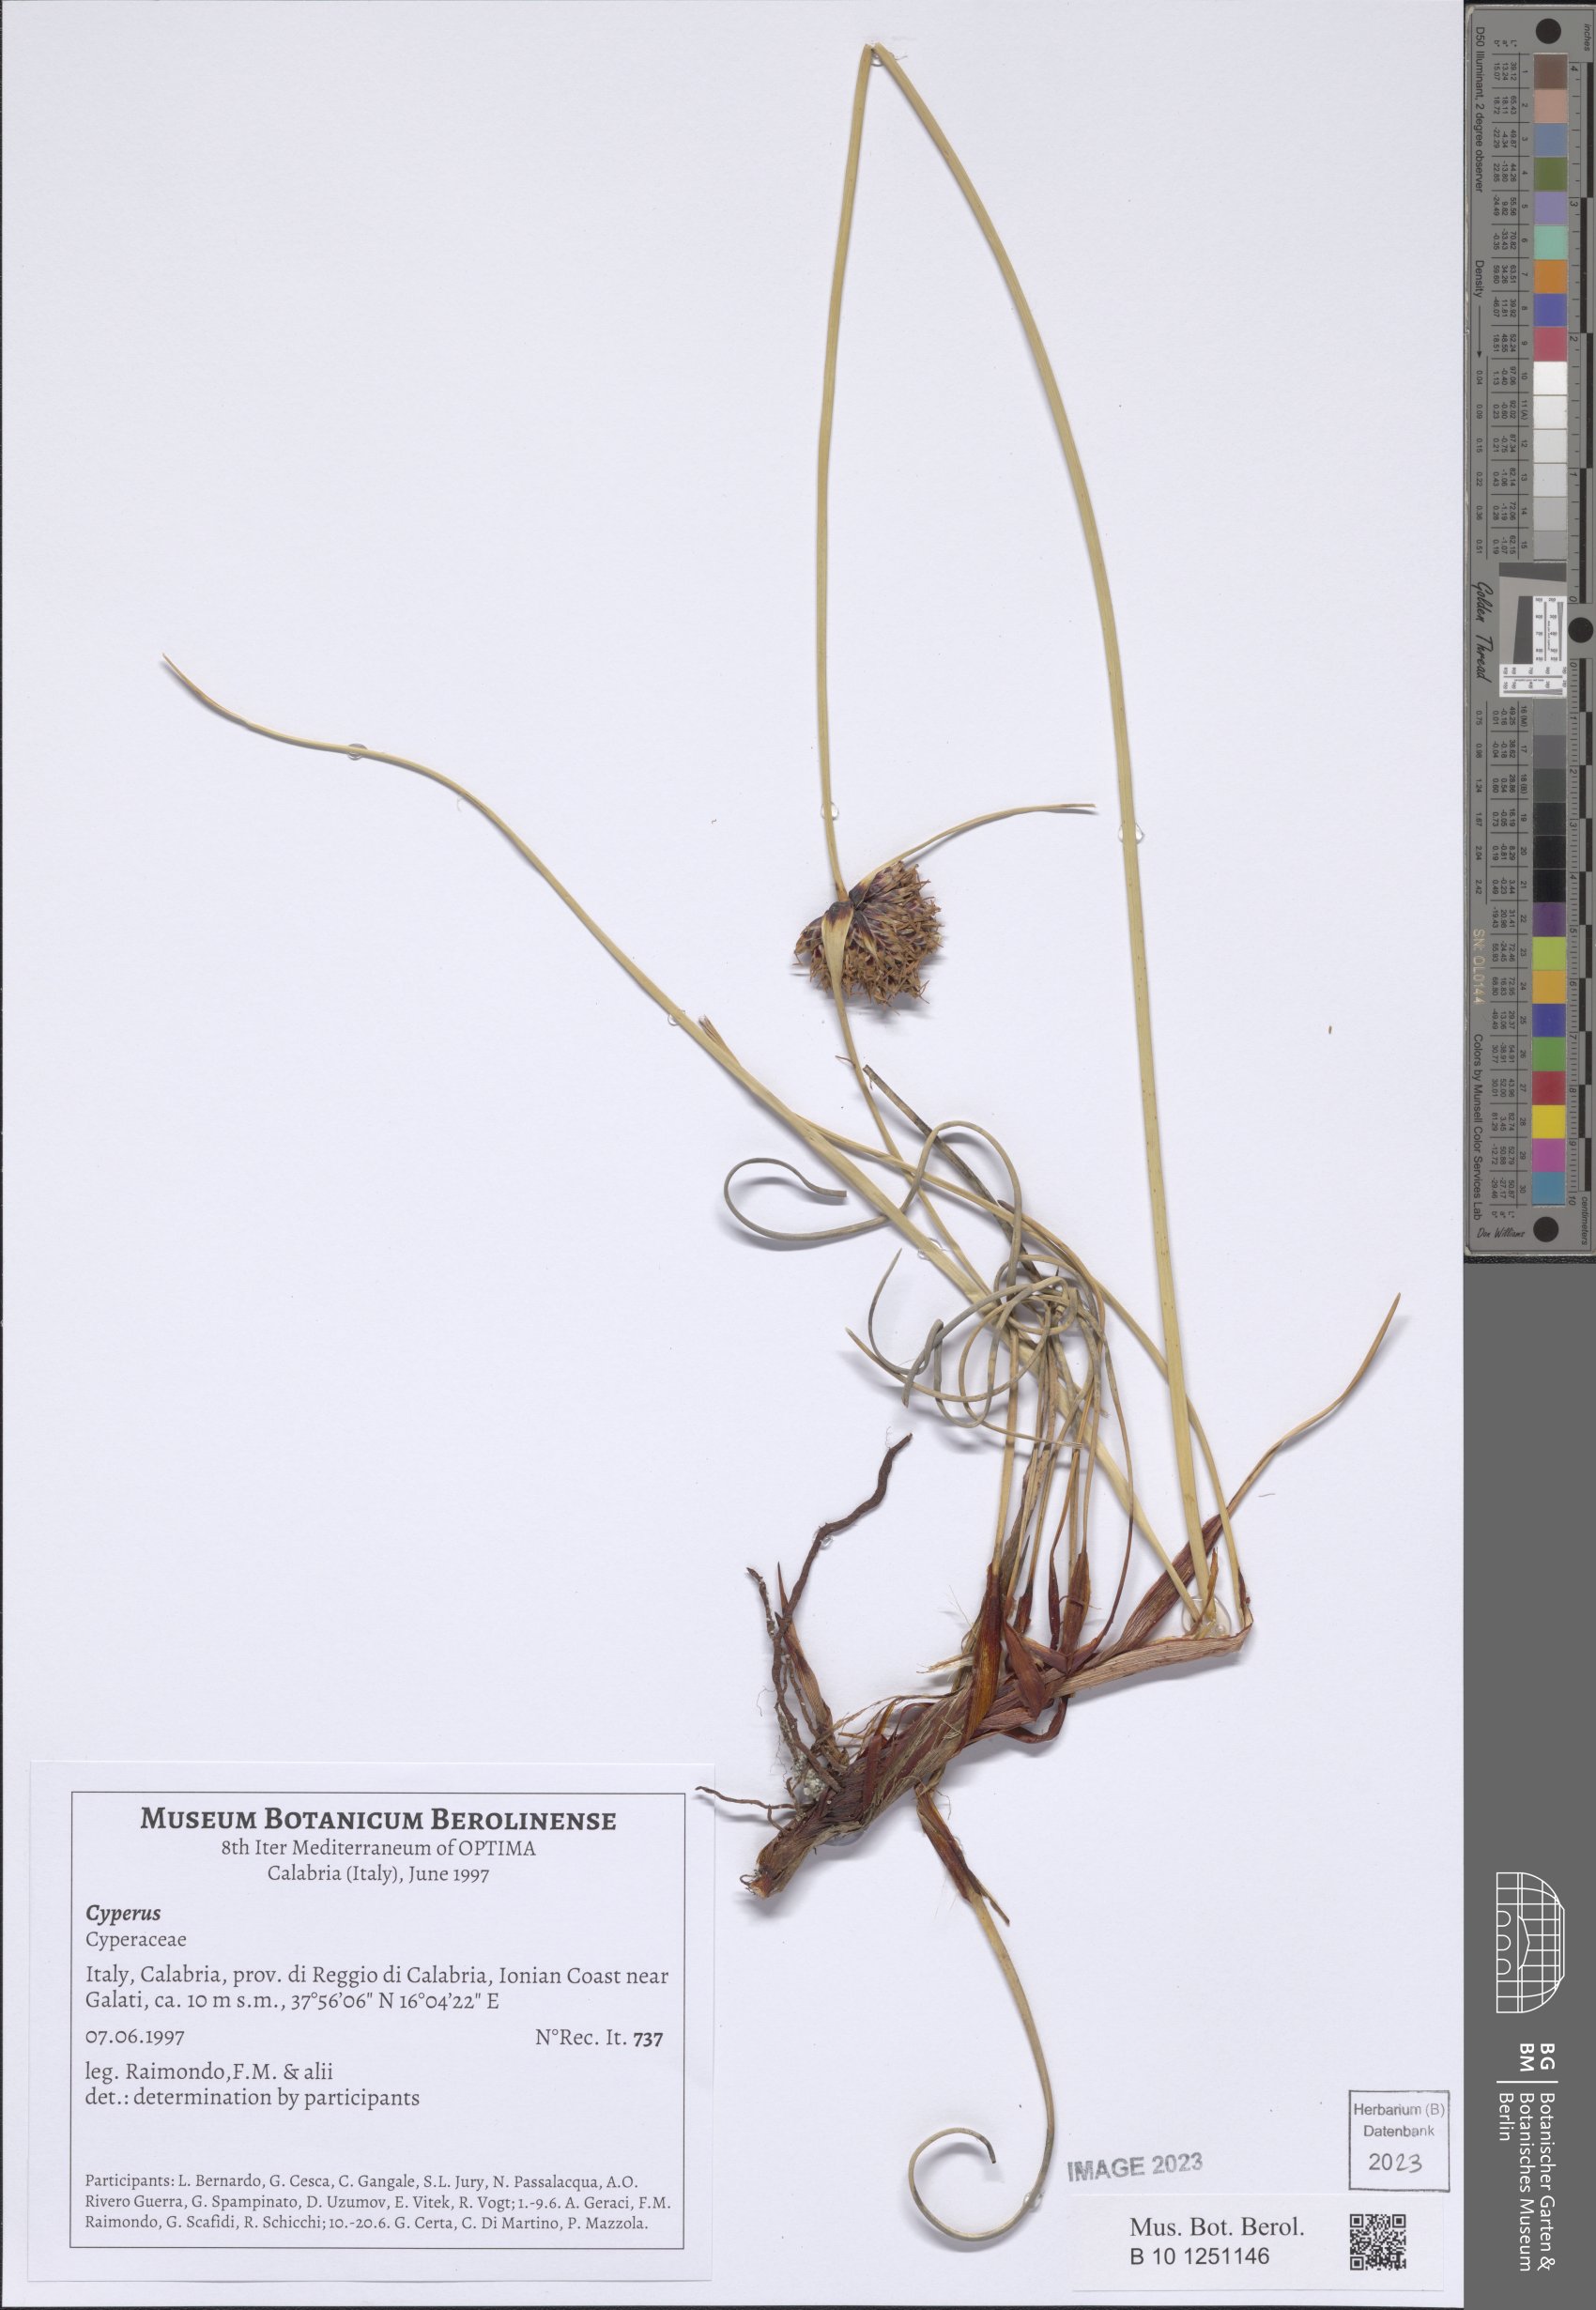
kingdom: Plantae
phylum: Tracheophyta
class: Liliopsida
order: Poales
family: Cyperaceae
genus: Cyperus
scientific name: Cyperus
